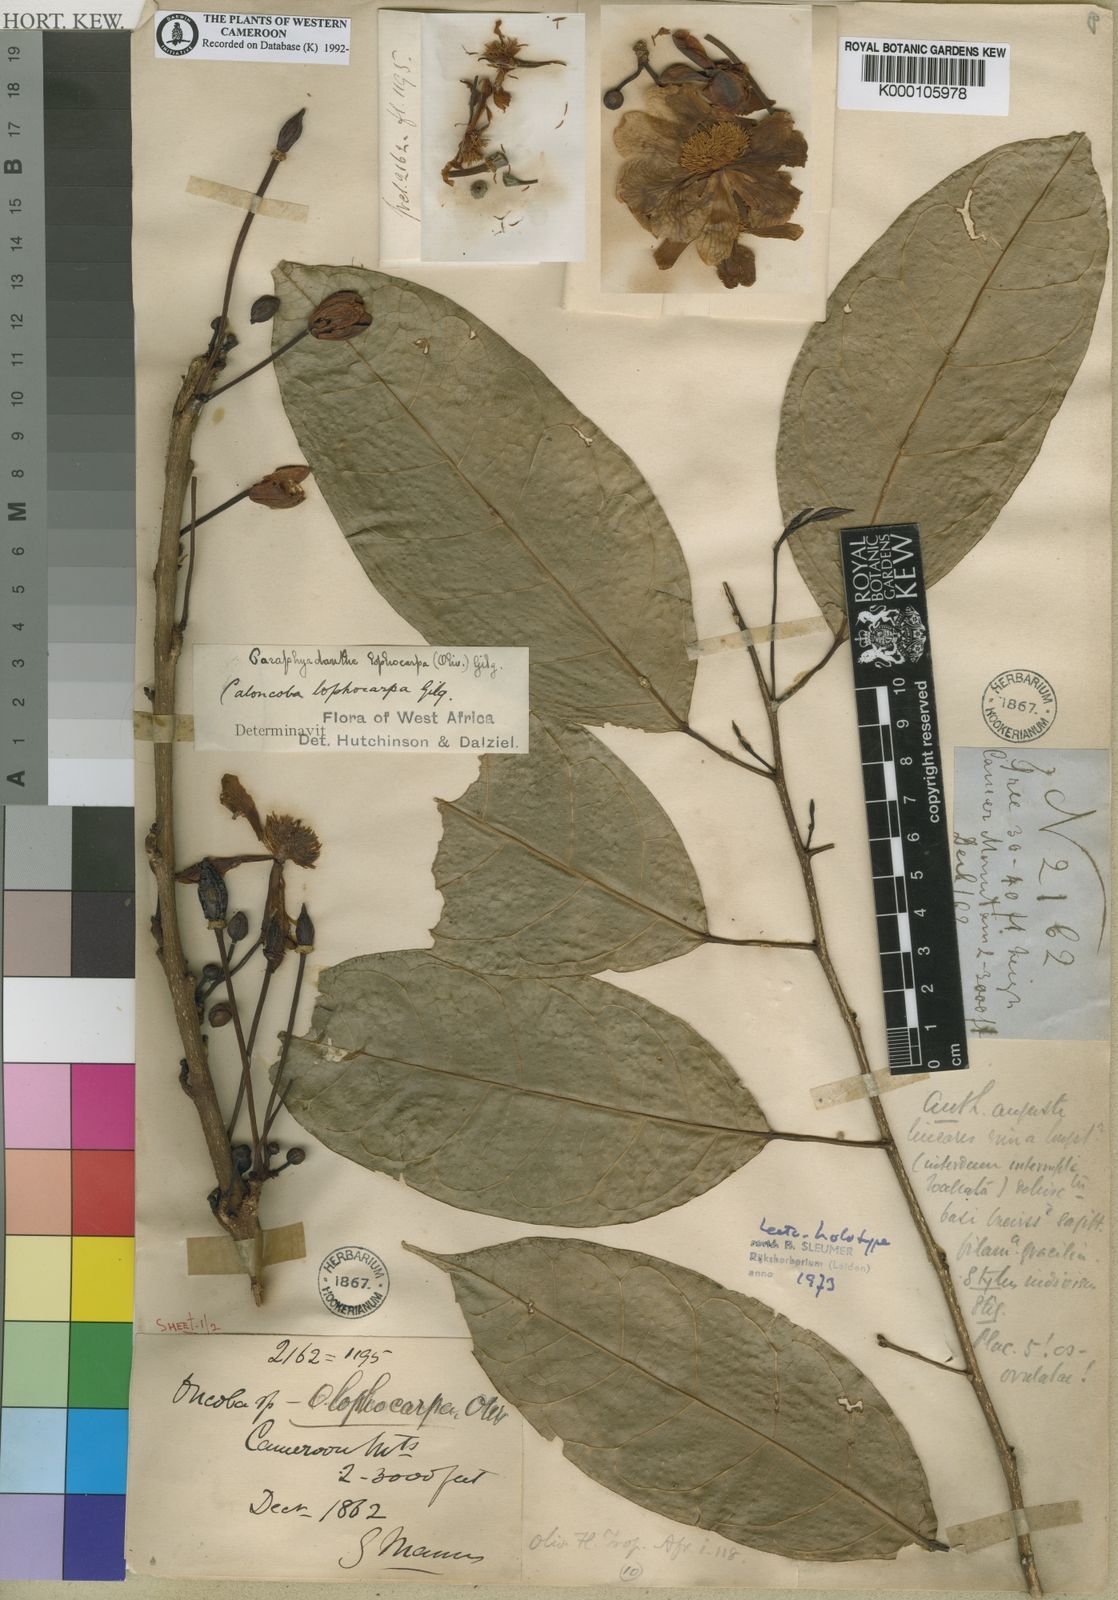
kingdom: Plantae
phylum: Tracheophyta
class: Magnoliopsida
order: Malpighiales
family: Achariaceae
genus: Caloncoba
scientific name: Caloncoba lophocarpa
